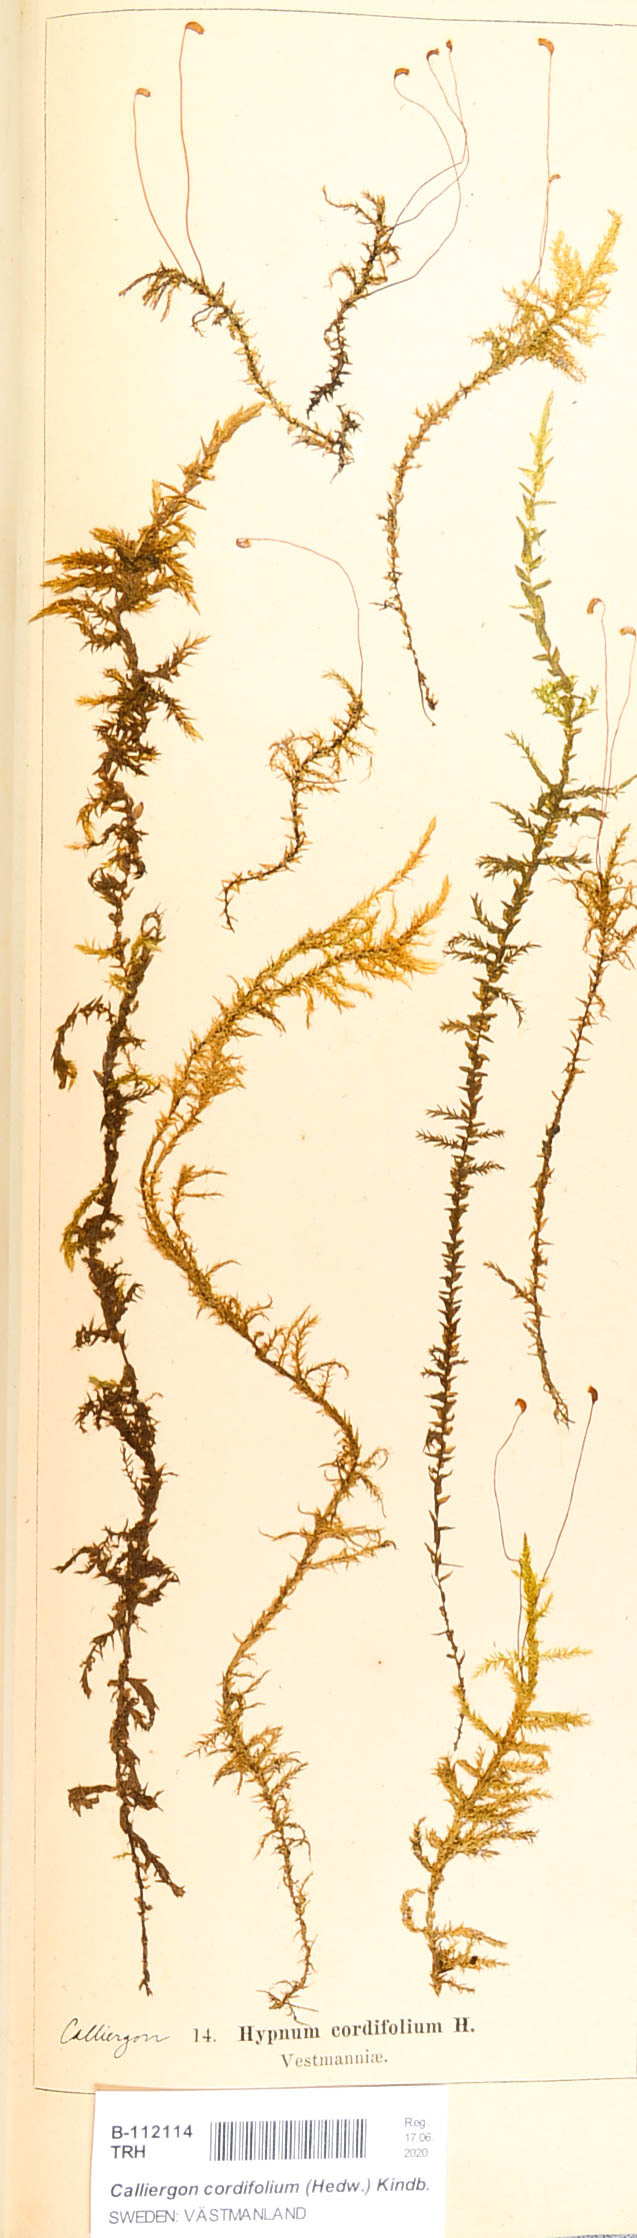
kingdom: Plantae
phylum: Bryophyta
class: Bryopsida
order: Hypnales
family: Calliergonaceae
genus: Calliergon
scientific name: Calliergon cordifolium
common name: Heart-leaved spear moss
